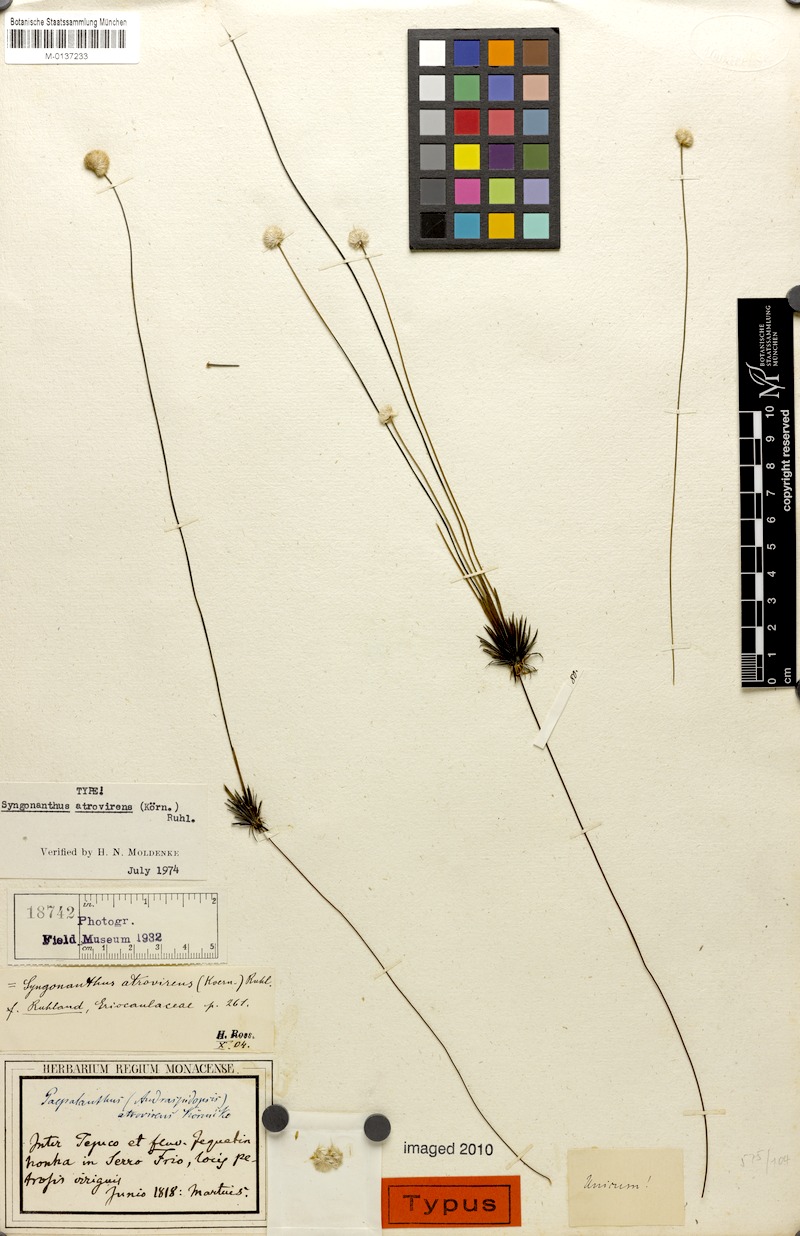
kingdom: Plantae
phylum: Tracheophyta
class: Liliopsida
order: Poales
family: Eriocaulaceae
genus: Syngonanthus
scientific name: Syngonanthus atrovirens
